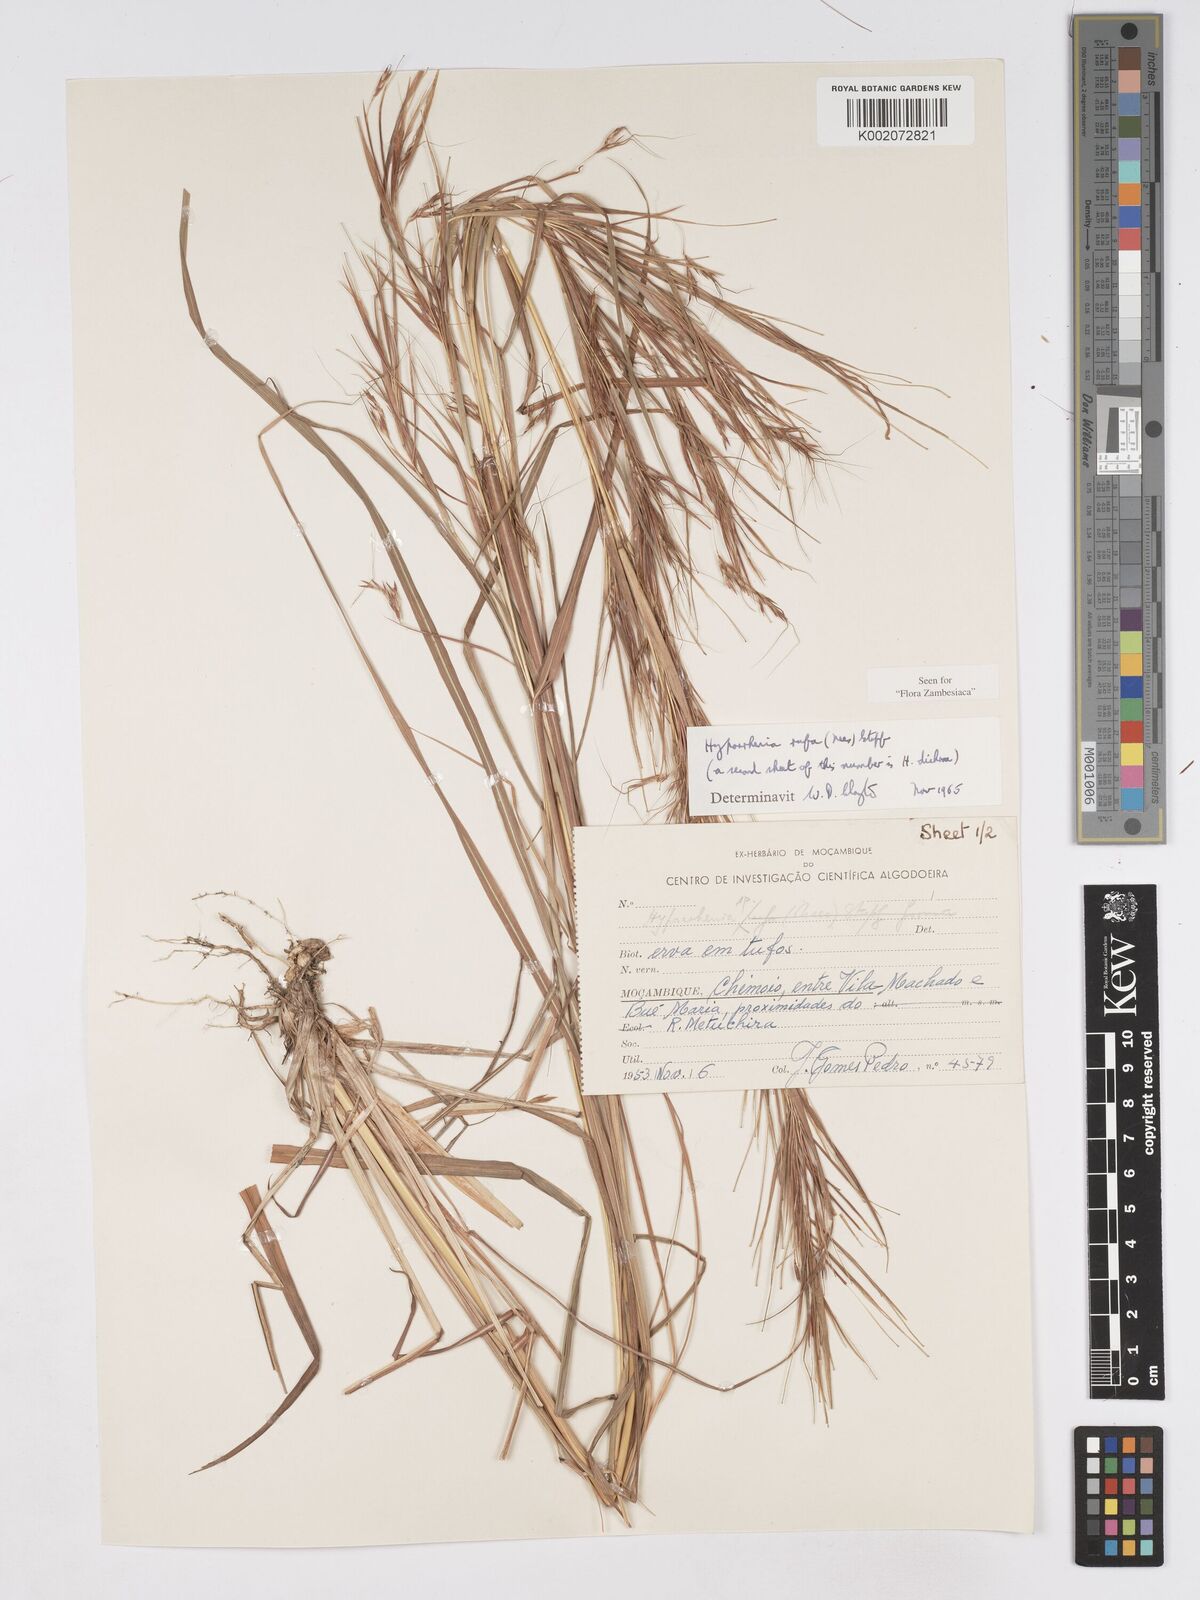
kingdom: Plantae
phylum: Tracheophyta
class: Liliopsida
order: Poales
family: Poaceae
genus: Hyparrhenia
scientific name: Hyparrhenia rufa
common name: Jaraguagrass
